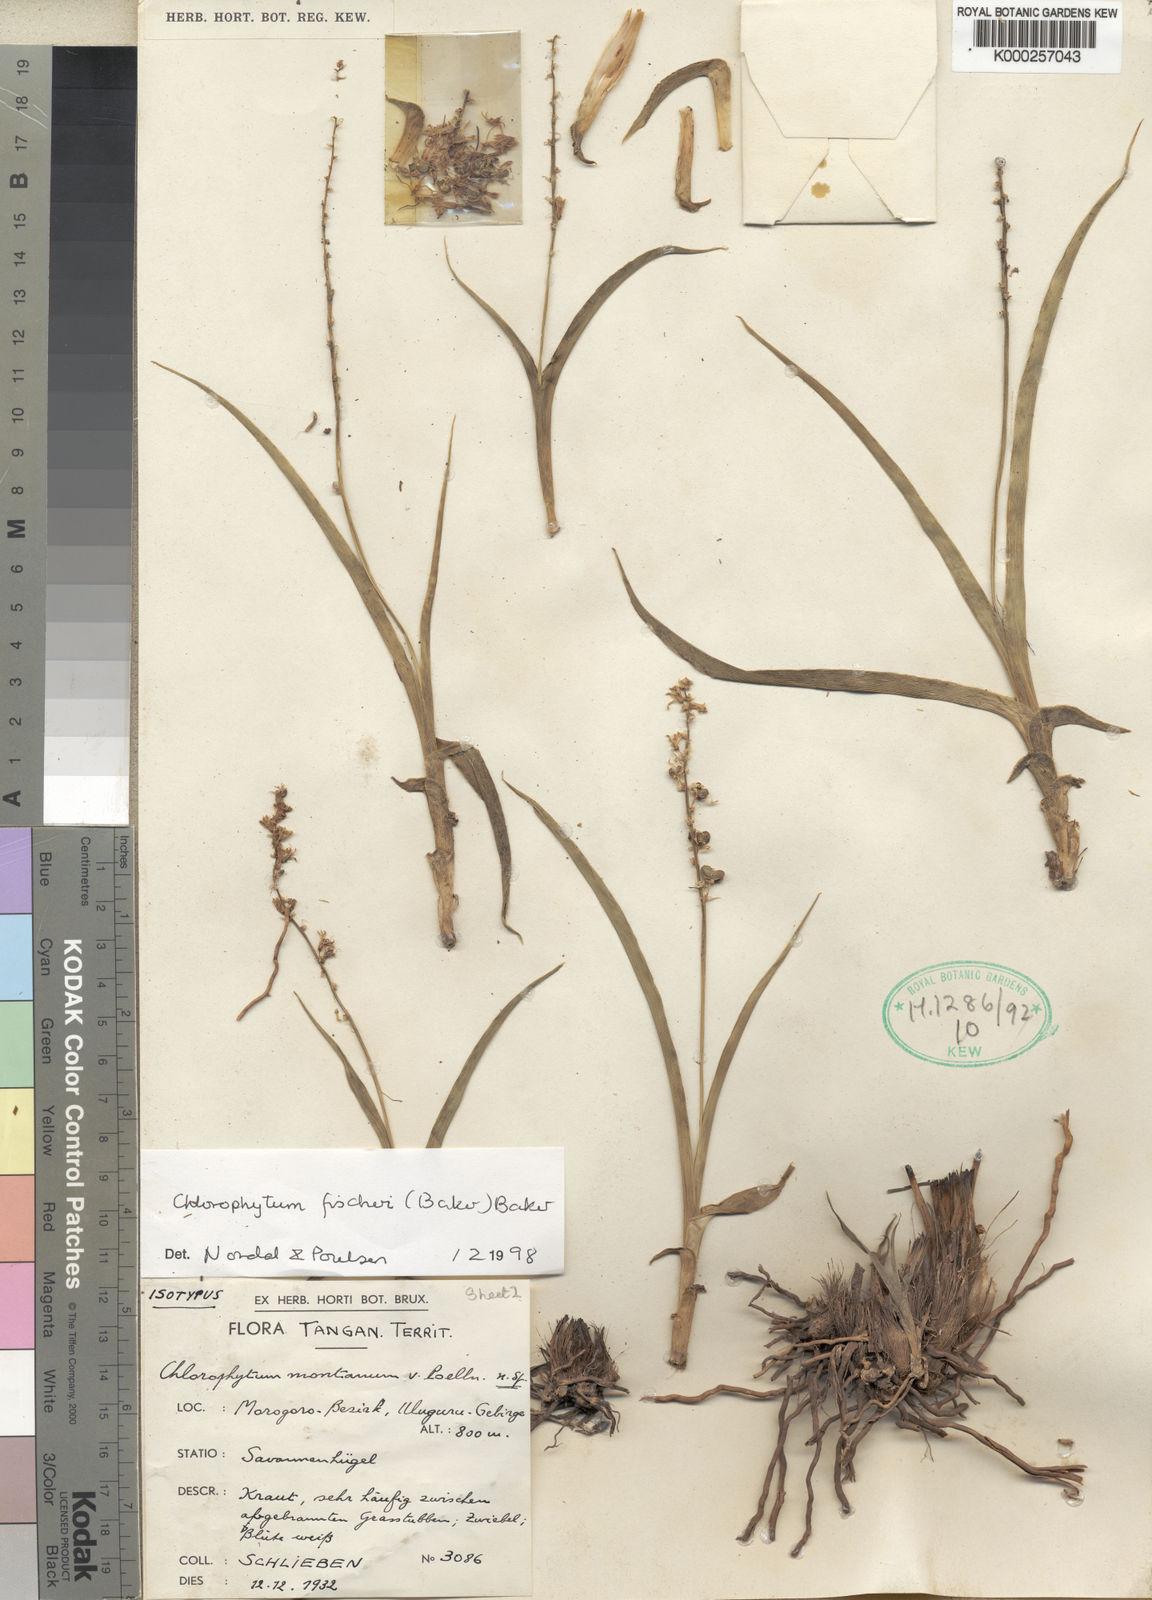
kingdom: Plantae
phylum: Tracheophyta
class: Liliopsida
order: Asparagales
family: Asparagaceae
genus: Chlorophytum
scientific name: Chlorophytum fischeri
